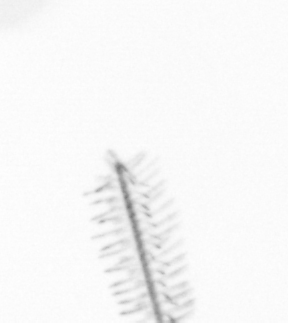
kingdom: Chromista
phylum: Ochrophyta
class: Bacillariophyceae
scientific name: Bacillariophyceae
